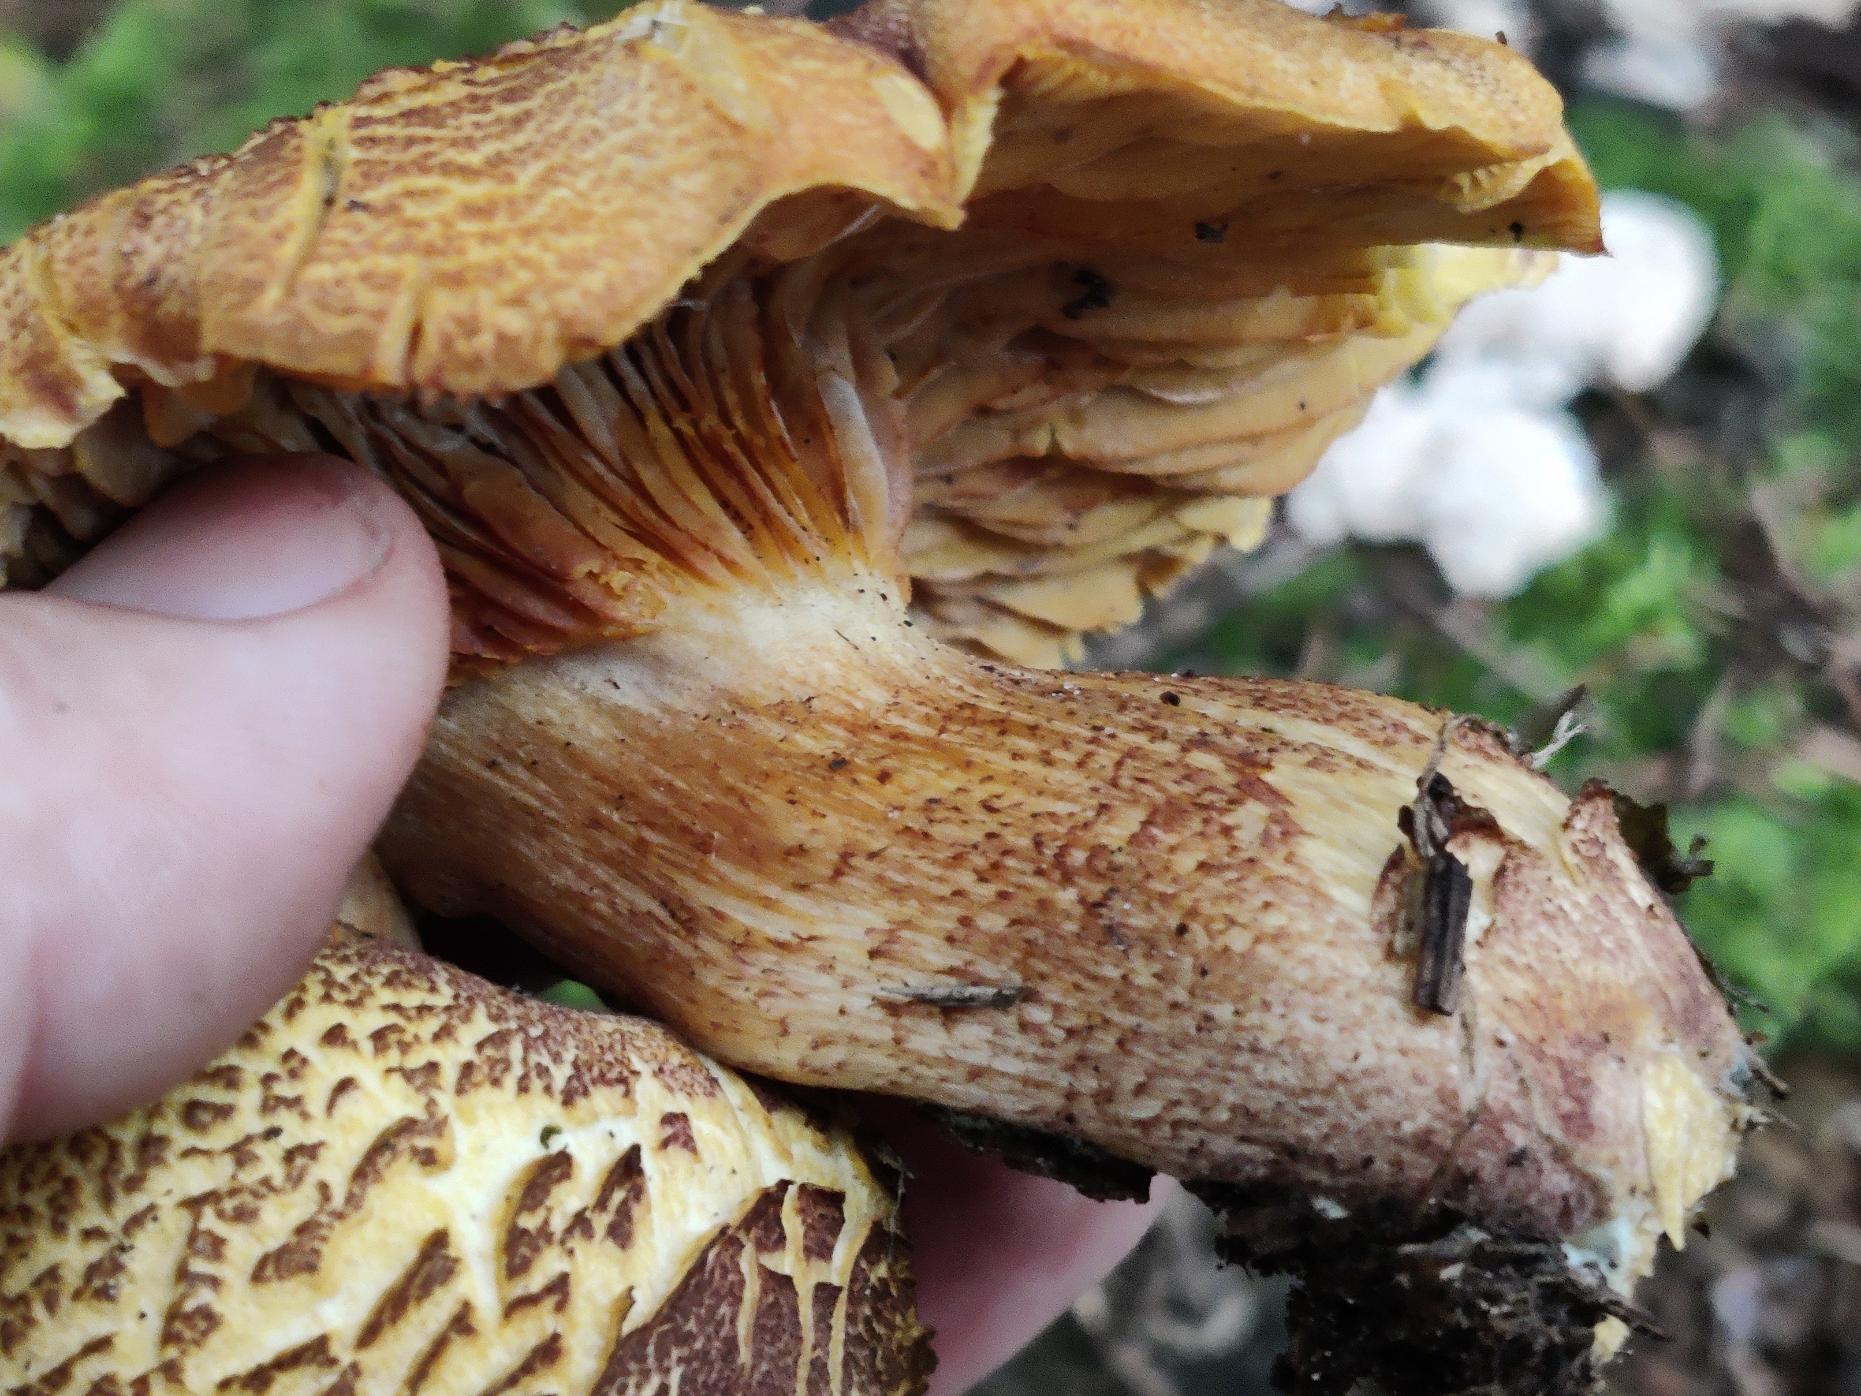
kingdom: Fungi
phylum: Basidiomycota
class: Agaricomycetes
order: Agaricales
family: Tricholomataceae
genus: Tricholomopsis
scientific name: Tricholomopsis rutilans
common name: Purpur-væbnerhat
